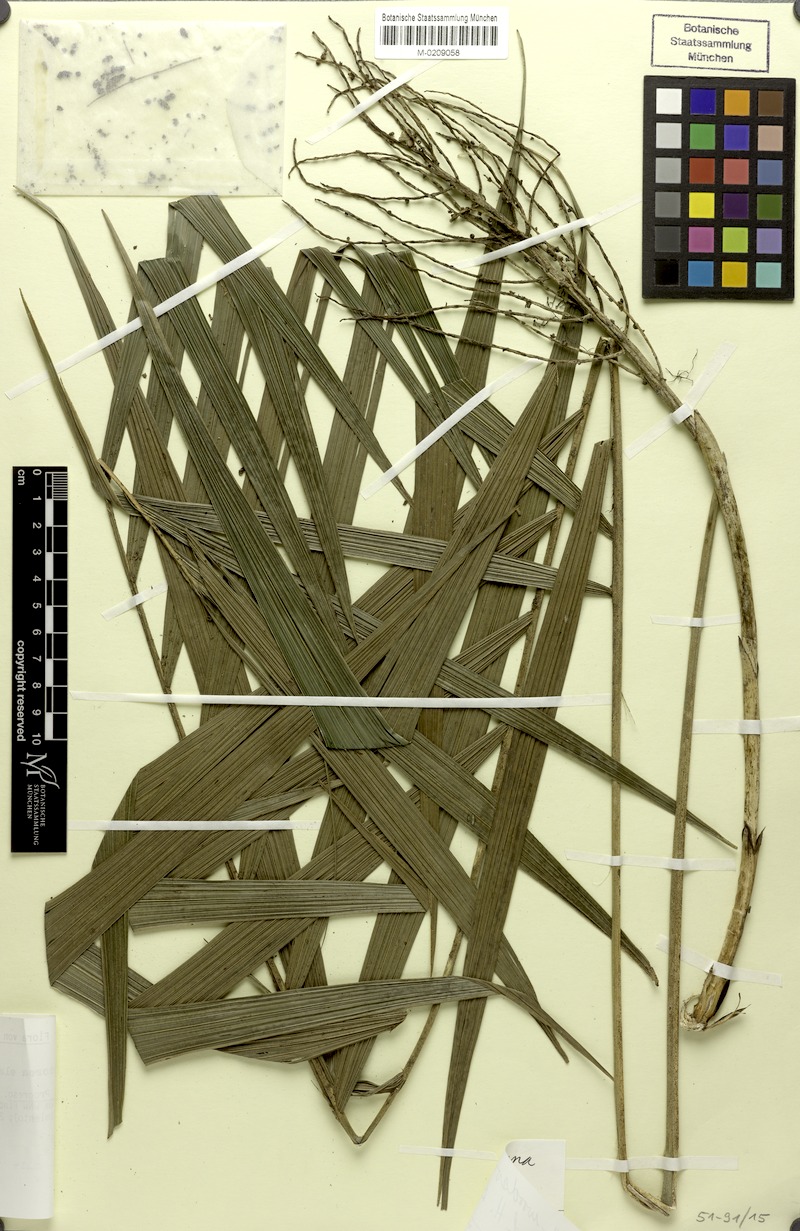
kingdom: Plantae
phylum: Tracheophyta
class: Liliopsida
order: Arecales
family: Arecaceae
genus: Chamaedorea
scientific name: Chamaedorea woodsoniana
